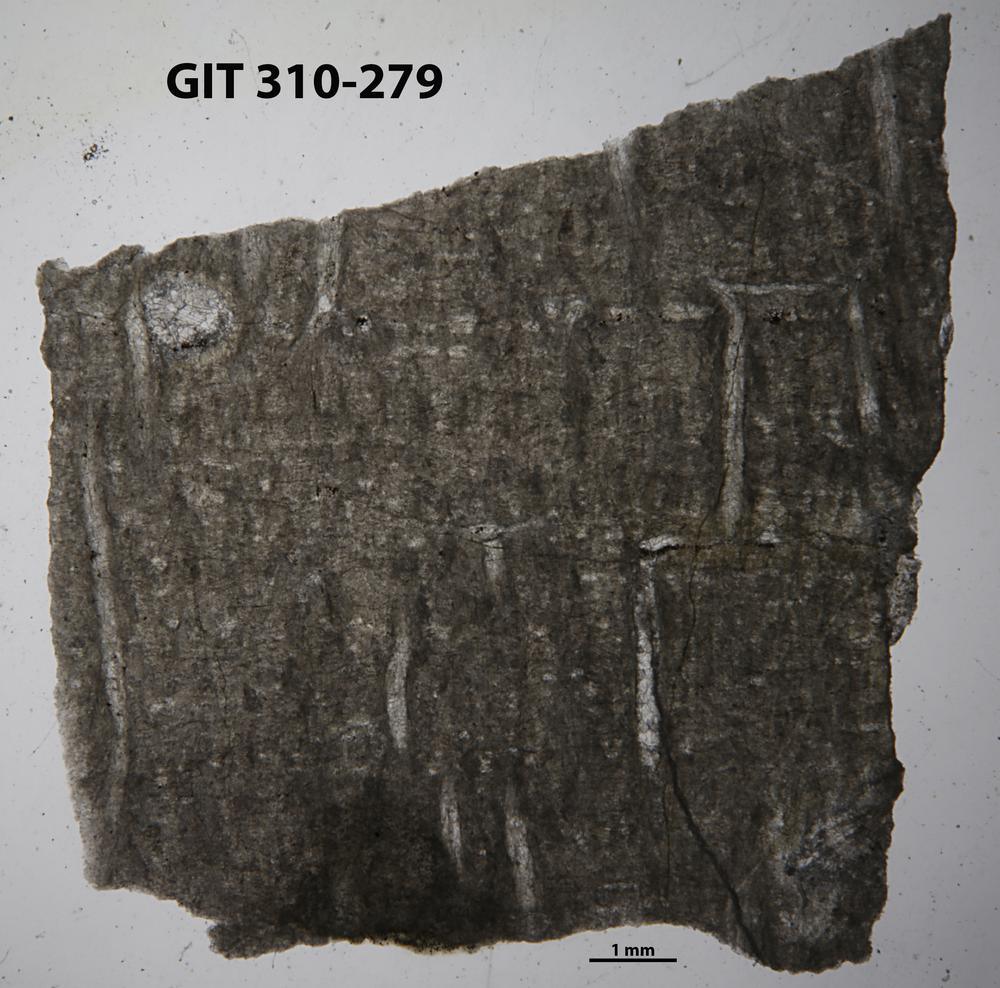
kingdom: Animalia
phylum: Porifera
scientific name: Porifera
